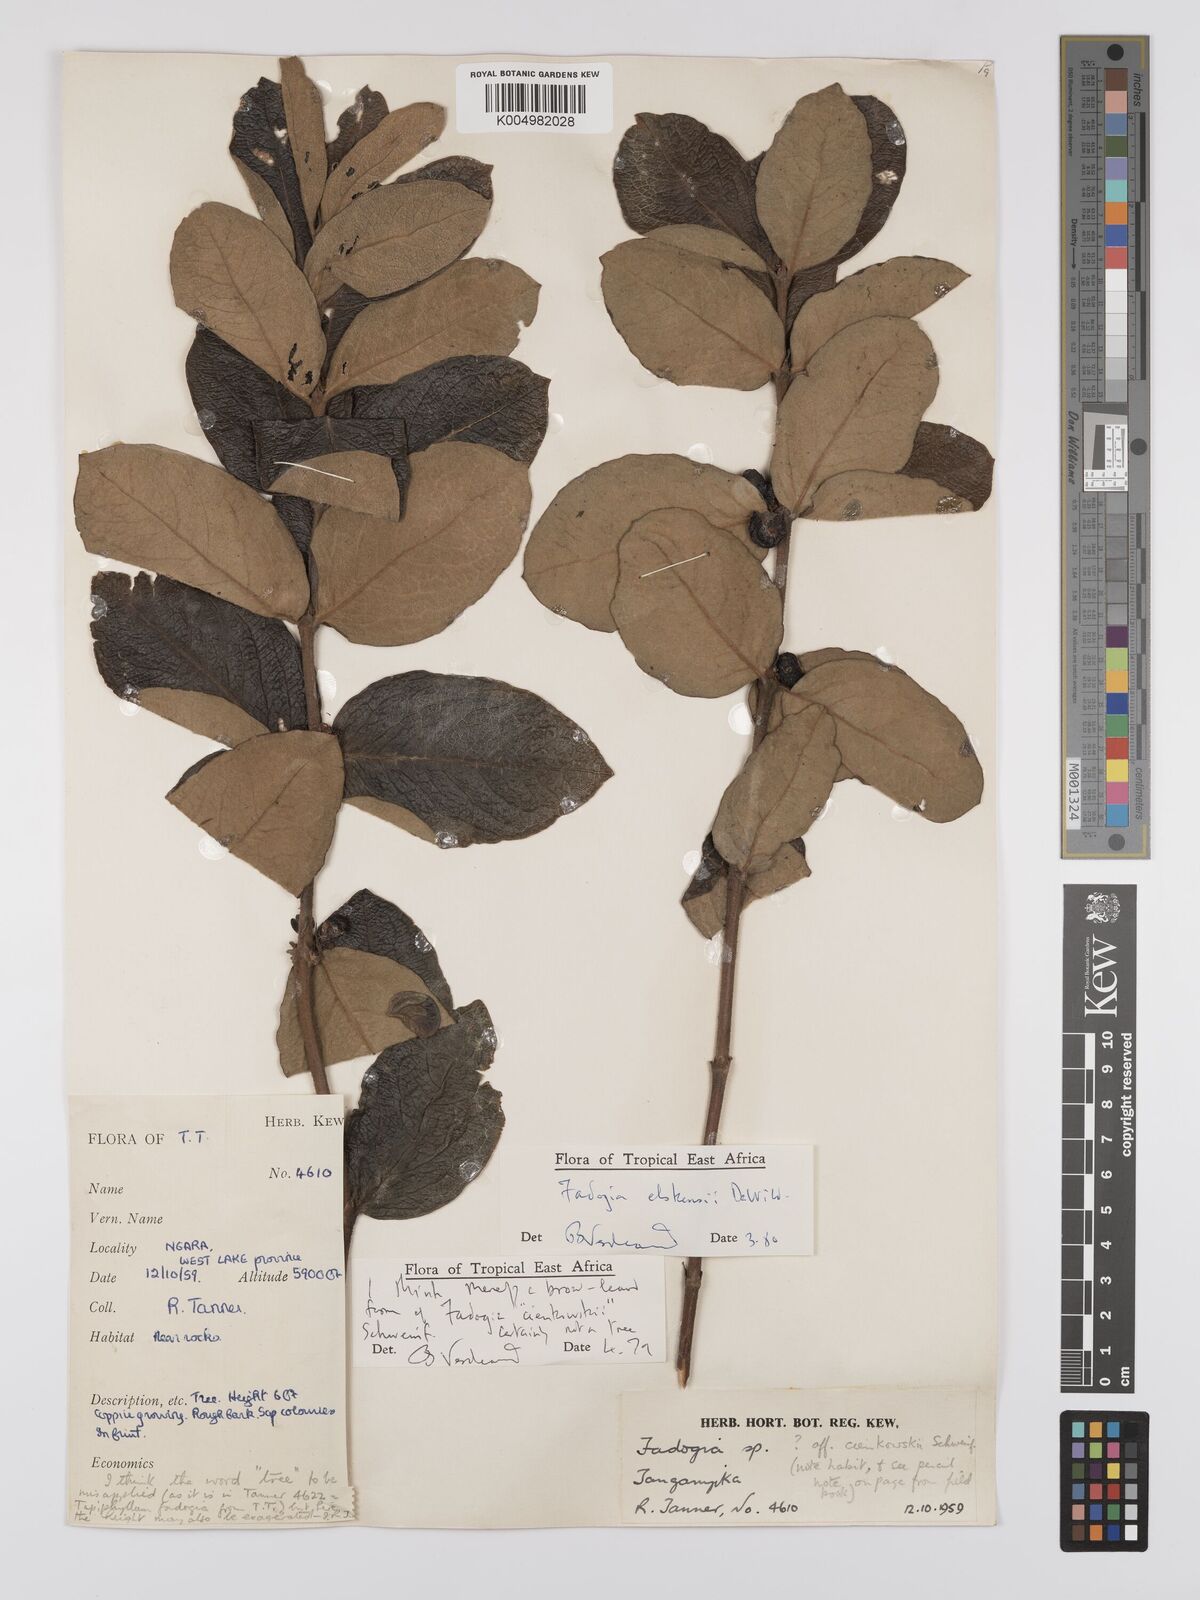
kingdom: Plantae
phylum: Tracheophyta
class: Magnoliopsida
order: Gentianales
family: Rubiaceae
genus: Fadogia
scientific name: Fadogia elskensii
